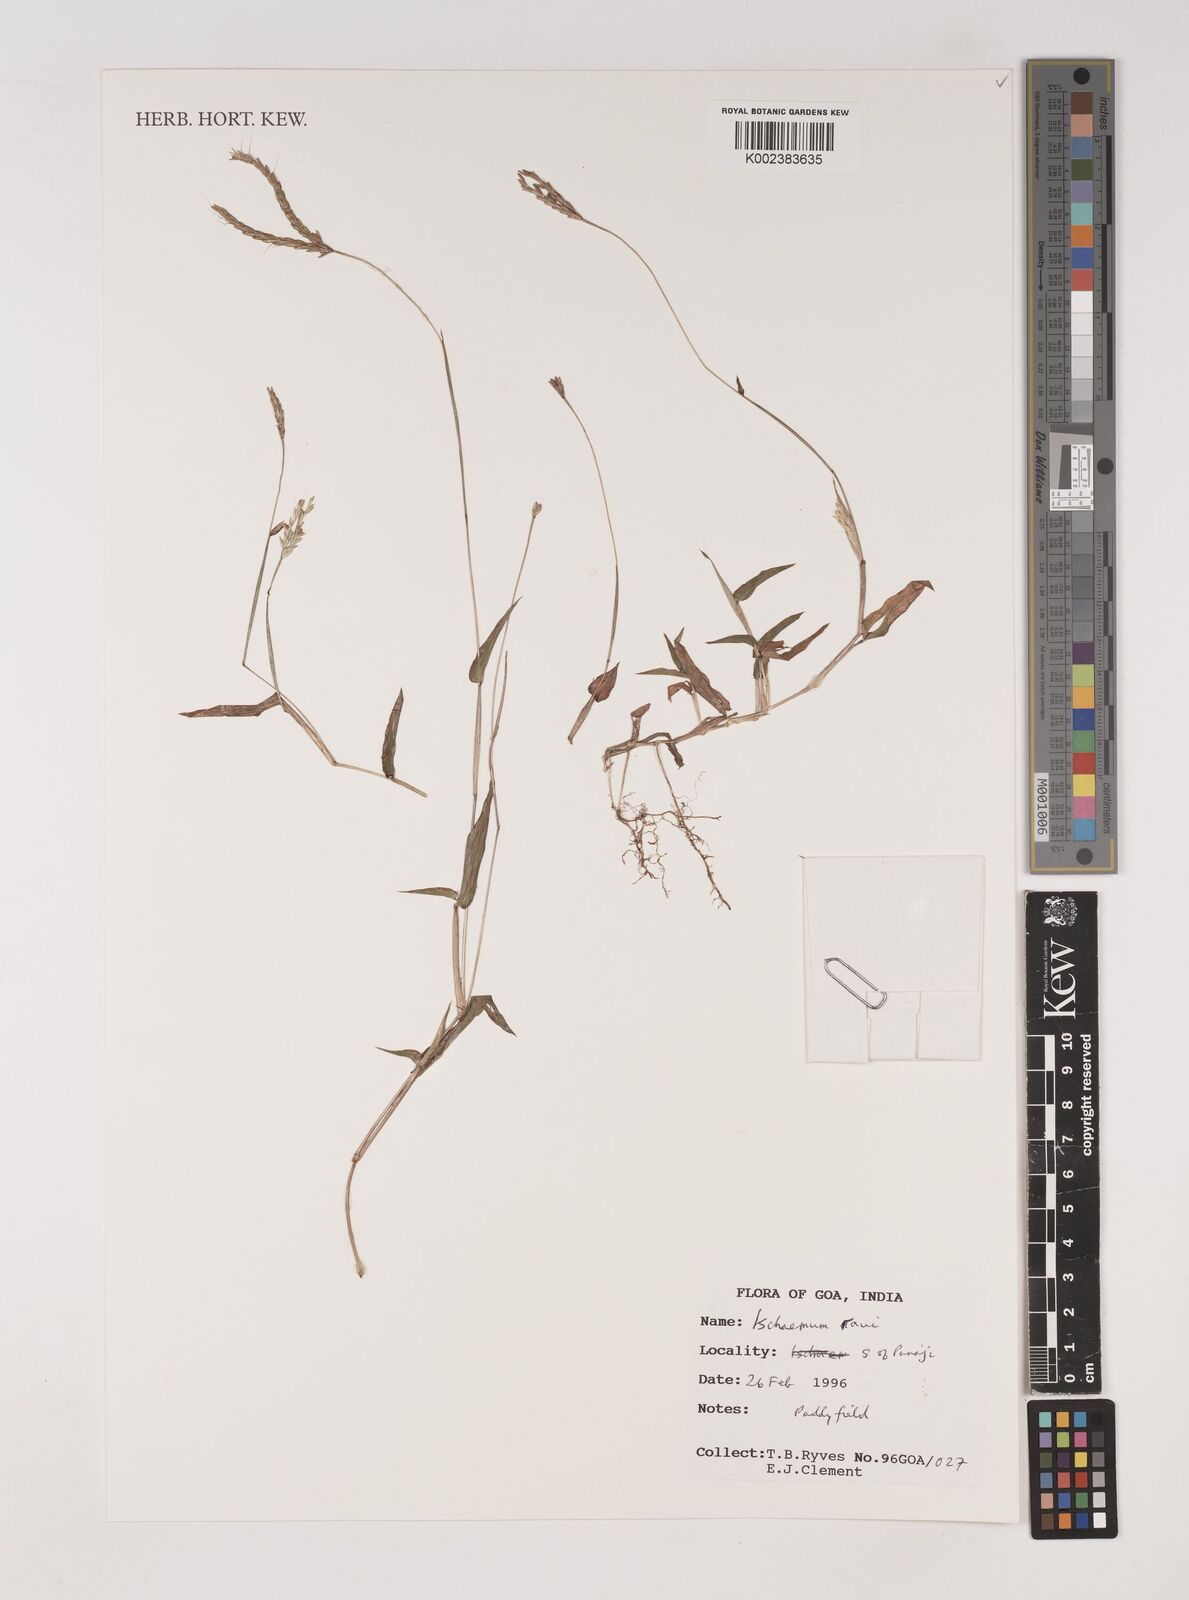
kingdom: Plantae
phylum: Tracheophyta
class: Liliopsida
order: Poales
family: Poaceae
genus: Ischaemum
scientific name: Ischaemum raui
